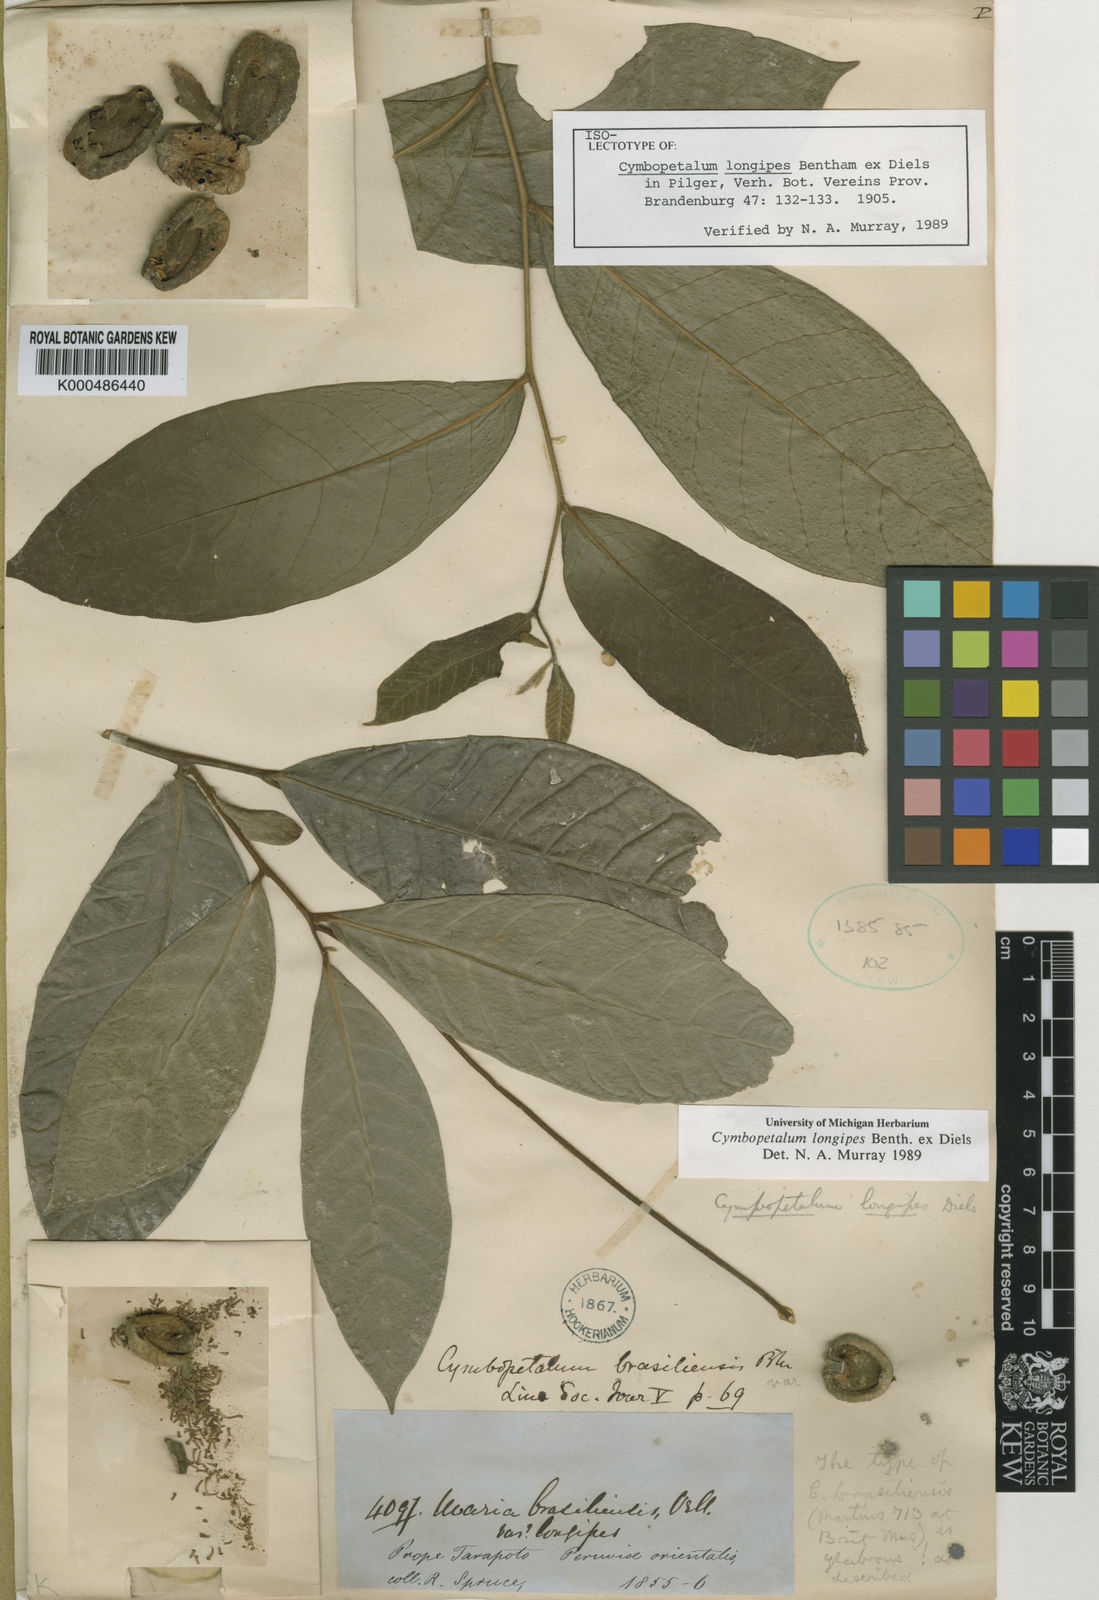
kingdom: Plantae
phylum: Tracheophyta
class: Magnoliopsida
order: Magnoliales
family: Annonaceae
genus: Cymbopetalum
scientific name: Cymbopetalum longipes
